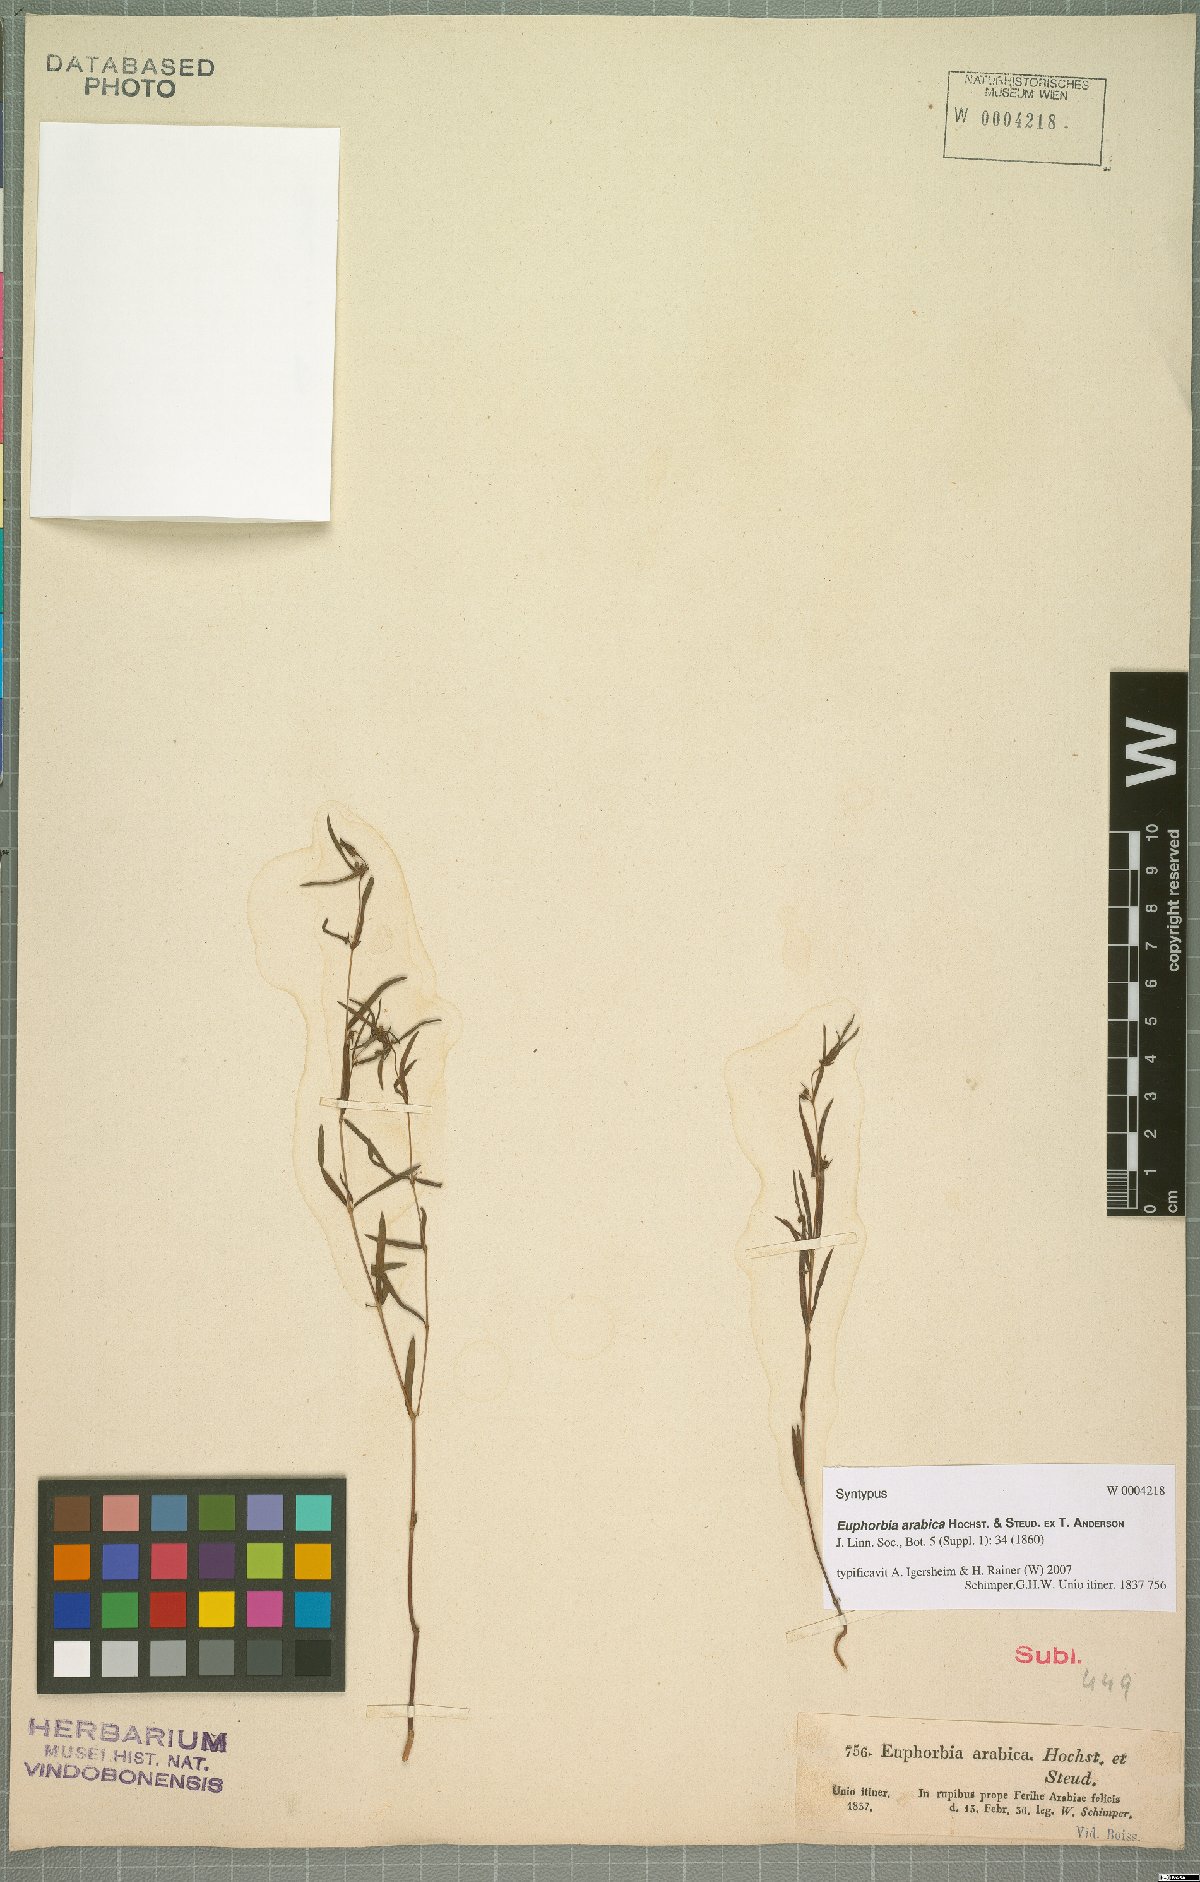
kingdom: Plantae
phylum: Tracheophyta
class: Magnoliopsida
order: Malpighiales
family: Euphorbiaceae
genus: Euphorbia
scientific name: Euphorbia arabica
